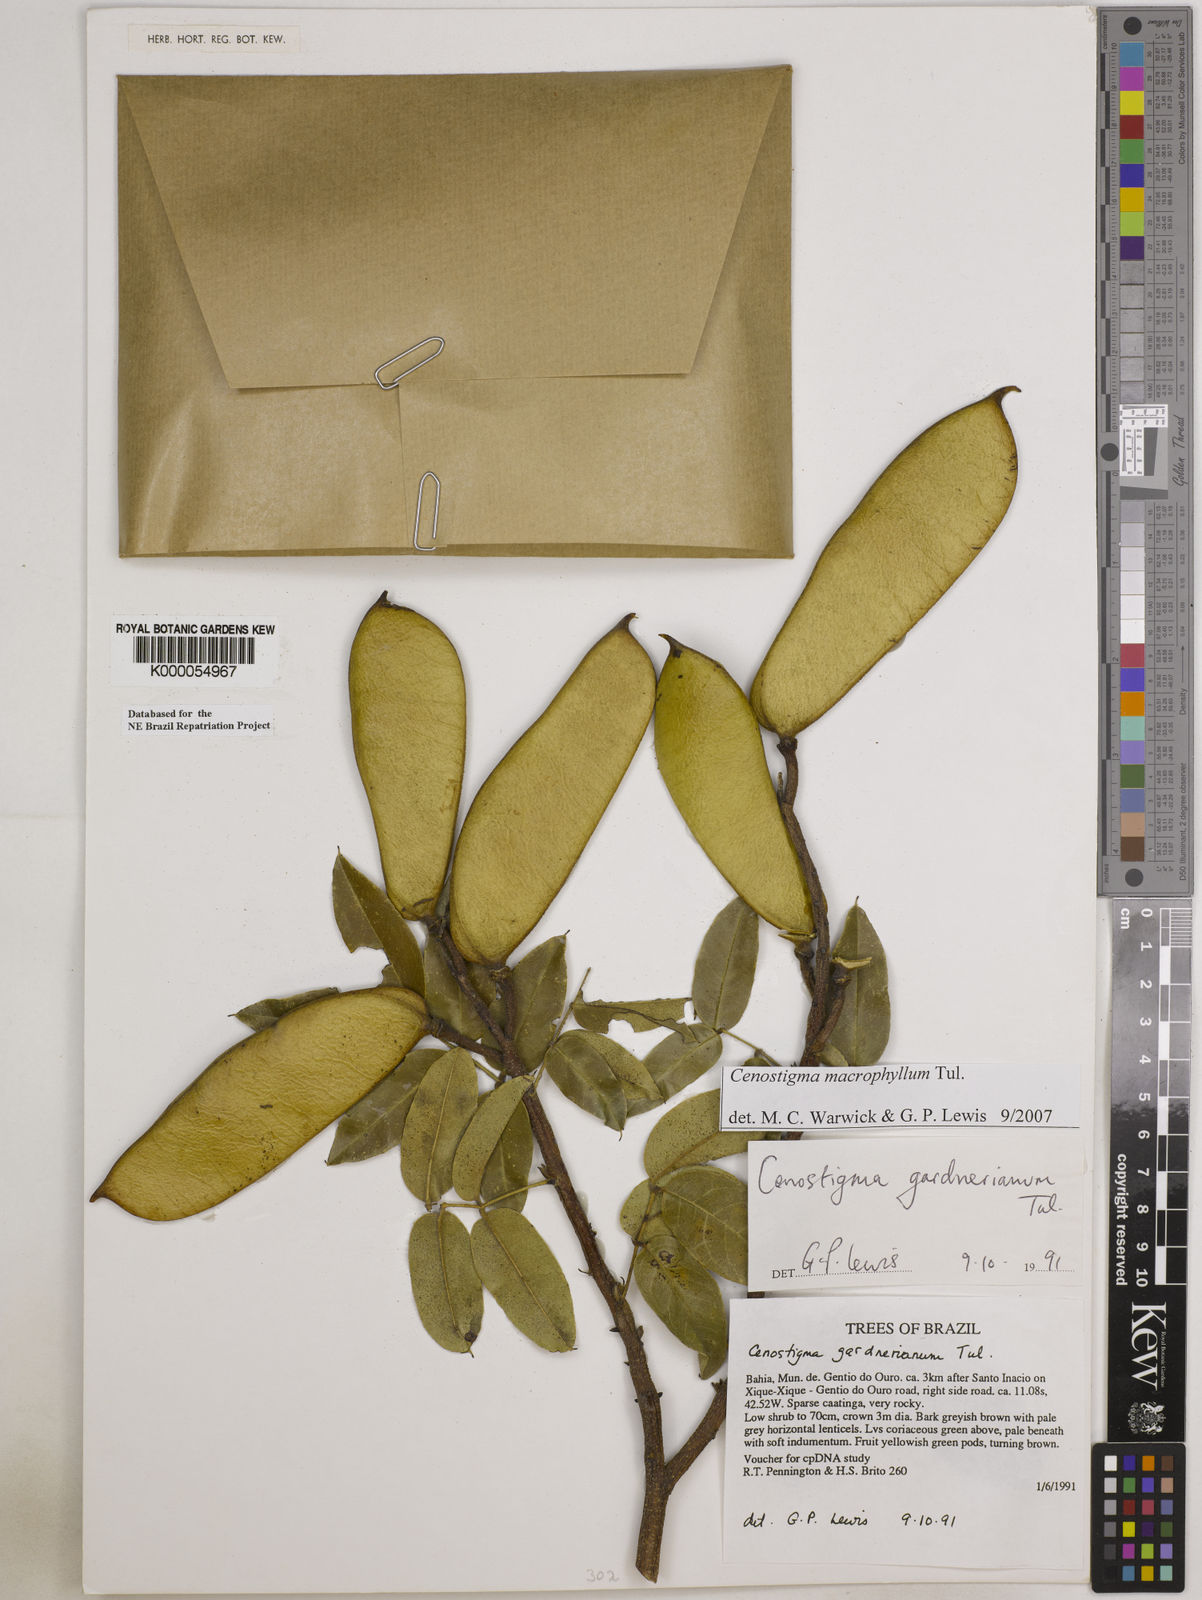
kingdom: Plantae
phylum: Tracheophyta
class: Magnoliopsida
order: Fabales
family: Fabaceae
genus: Cenostigma
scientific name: Cenostigma macrophyllum
